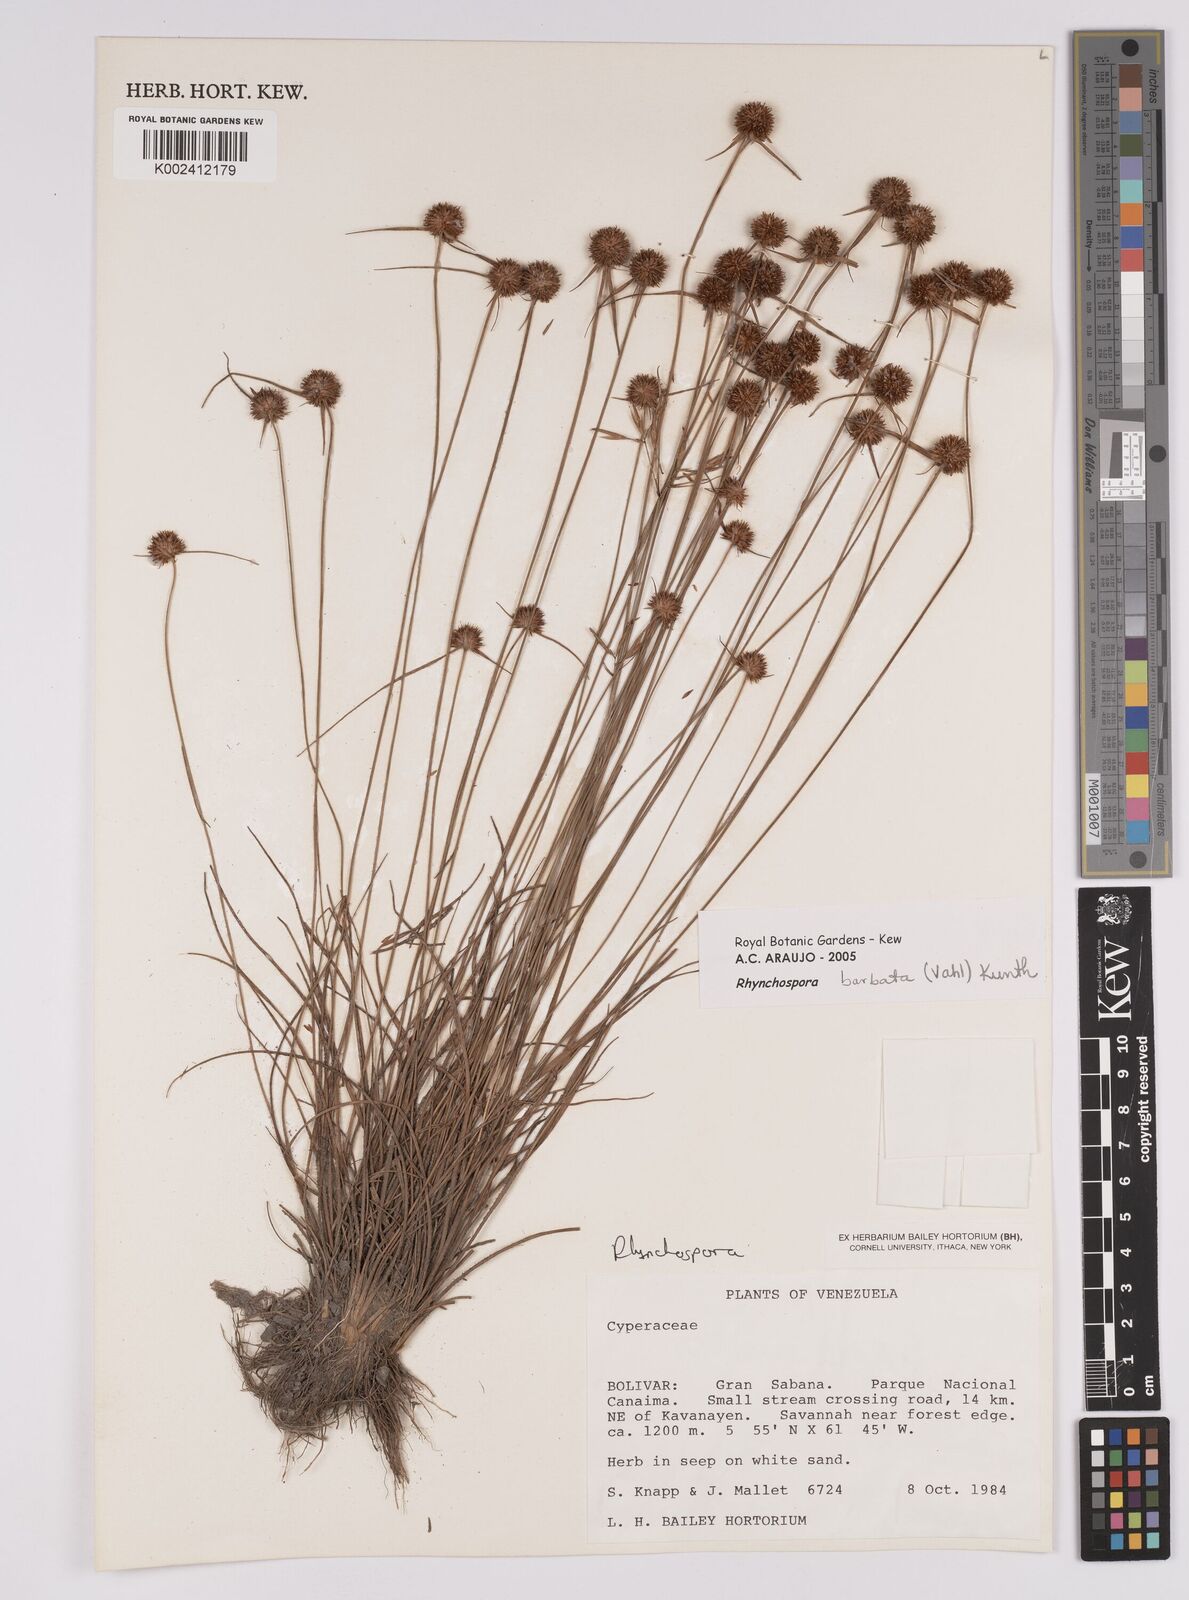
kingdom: Plantae
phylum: Tracheophyta
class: Liliopsida
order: Poales
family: Cyperaceae
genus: Rhynchospora
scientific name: Rhynchospora barbata
